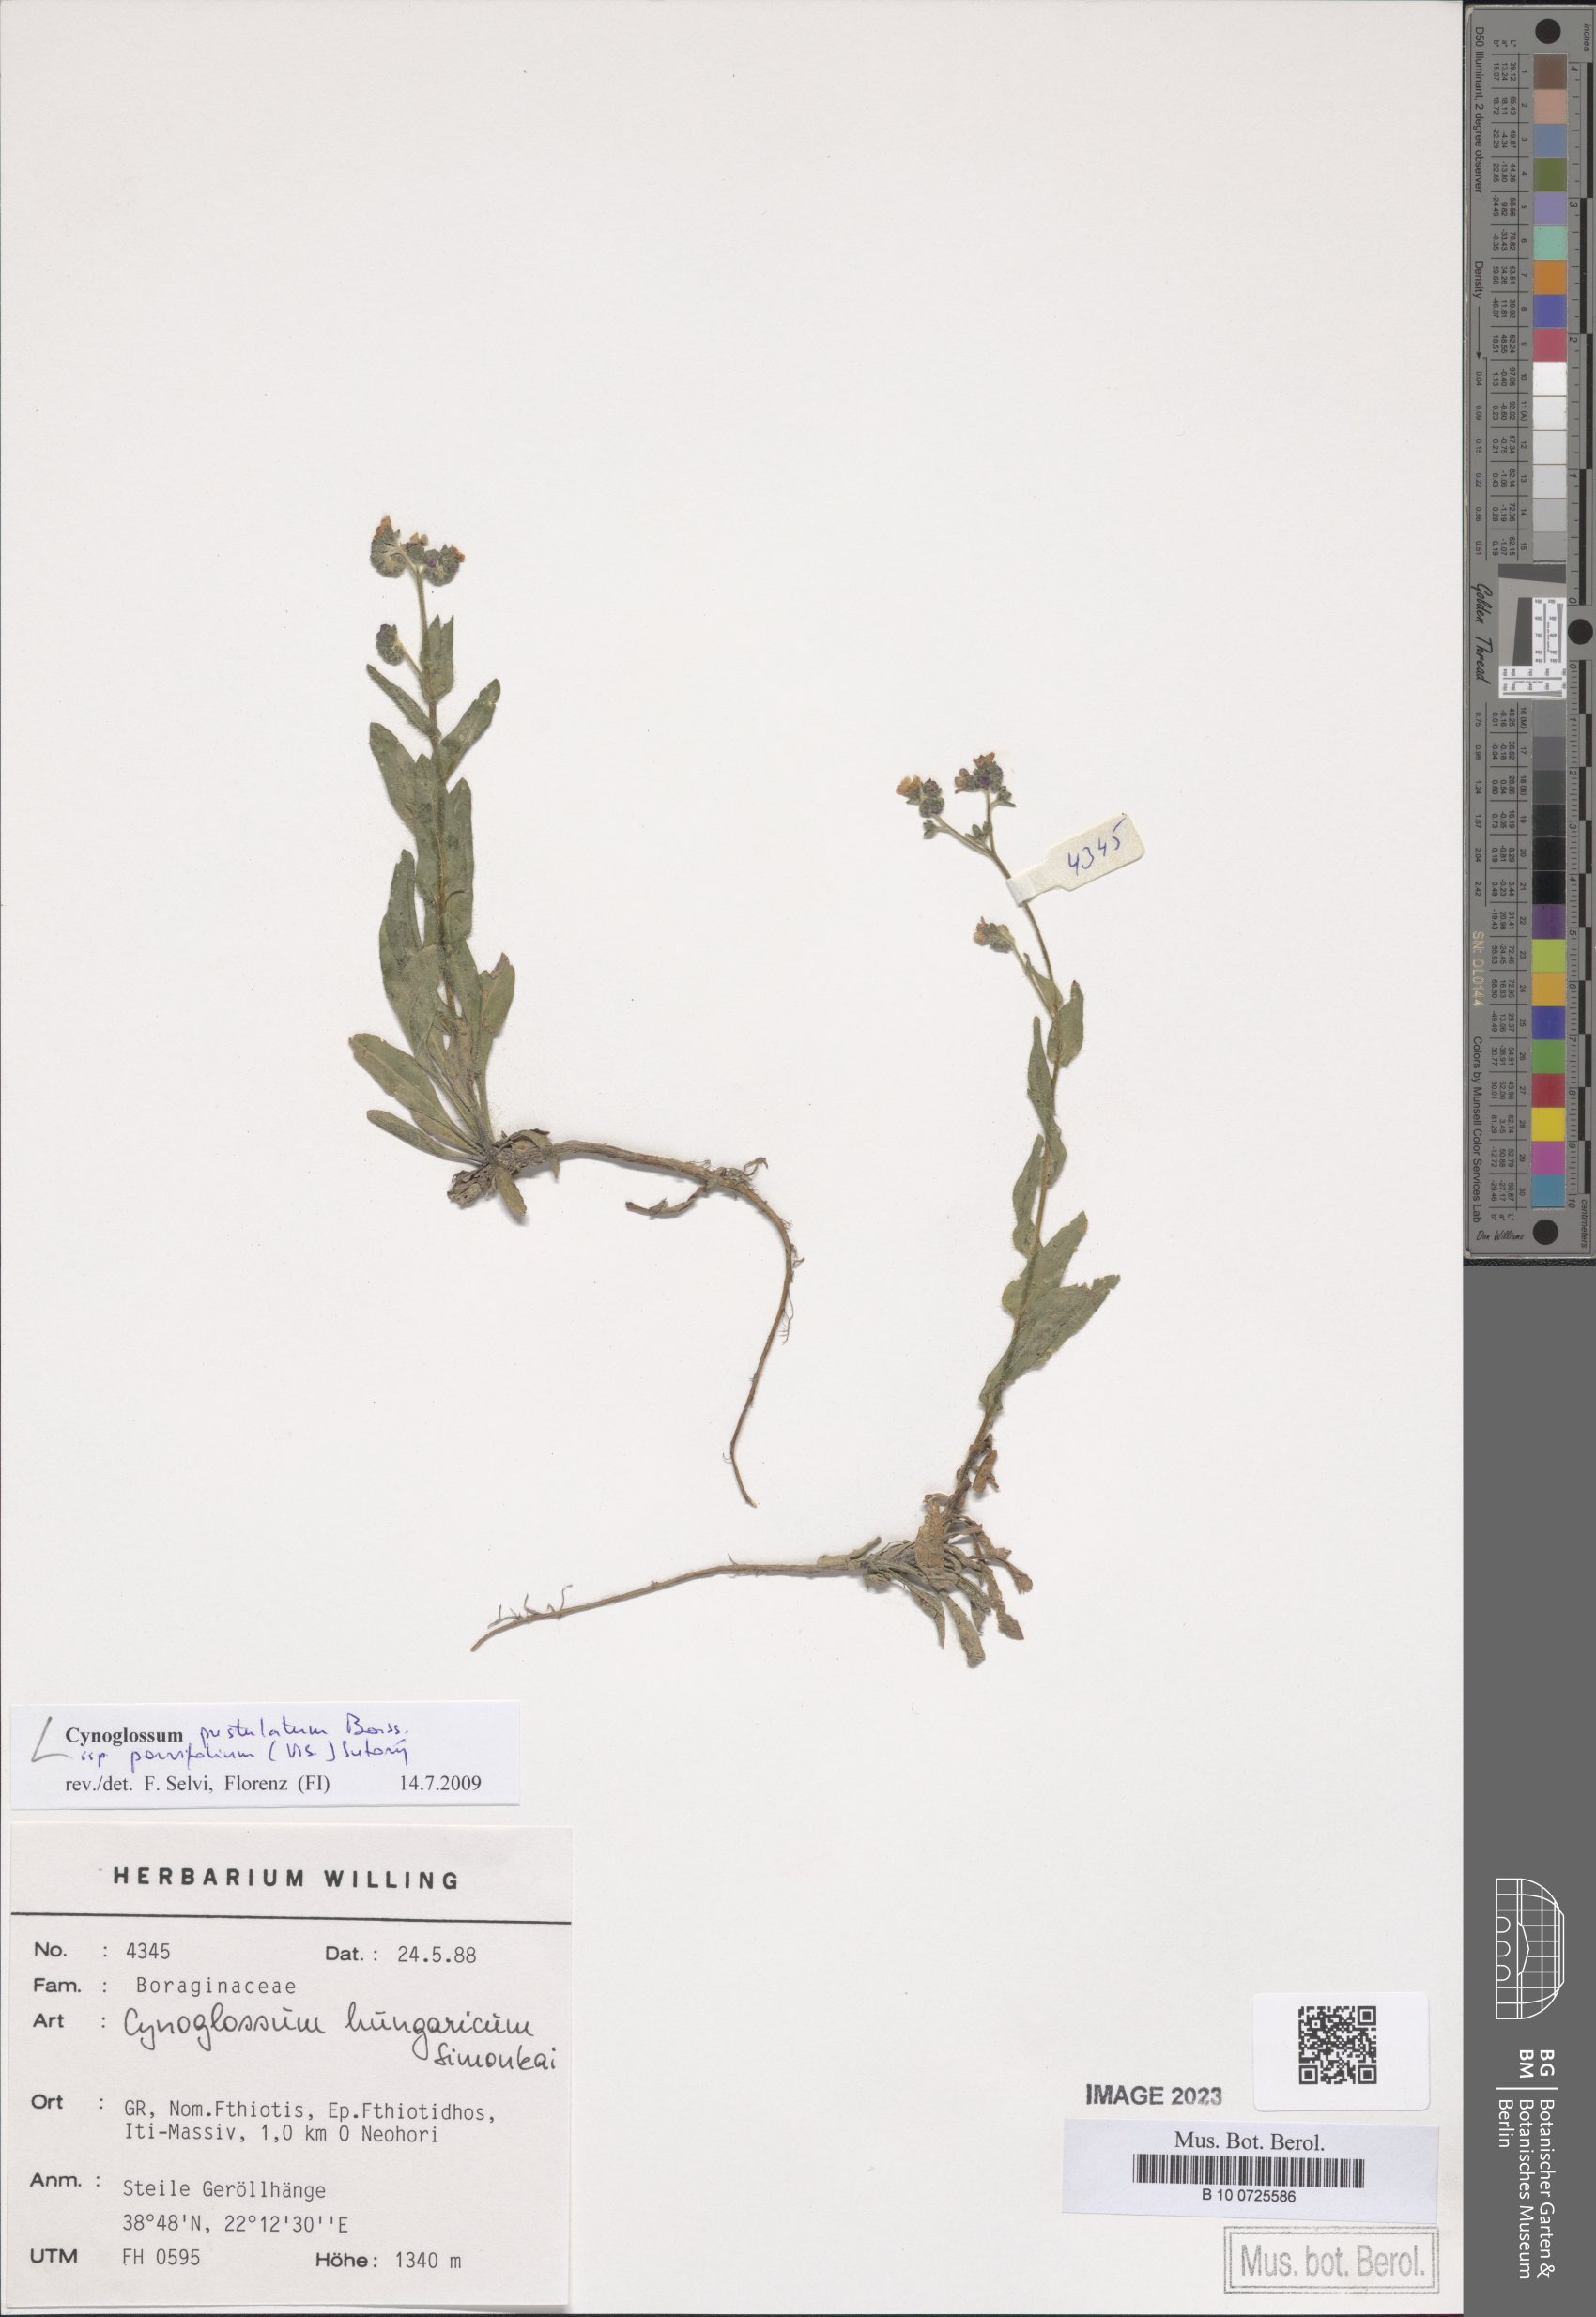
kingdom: Plantae
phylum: Tracheophyta
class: Magnoliopsida
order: Boraginales
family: Boraginaceae
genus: Cynoglossum
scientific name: Cynoglossum pustulatum
